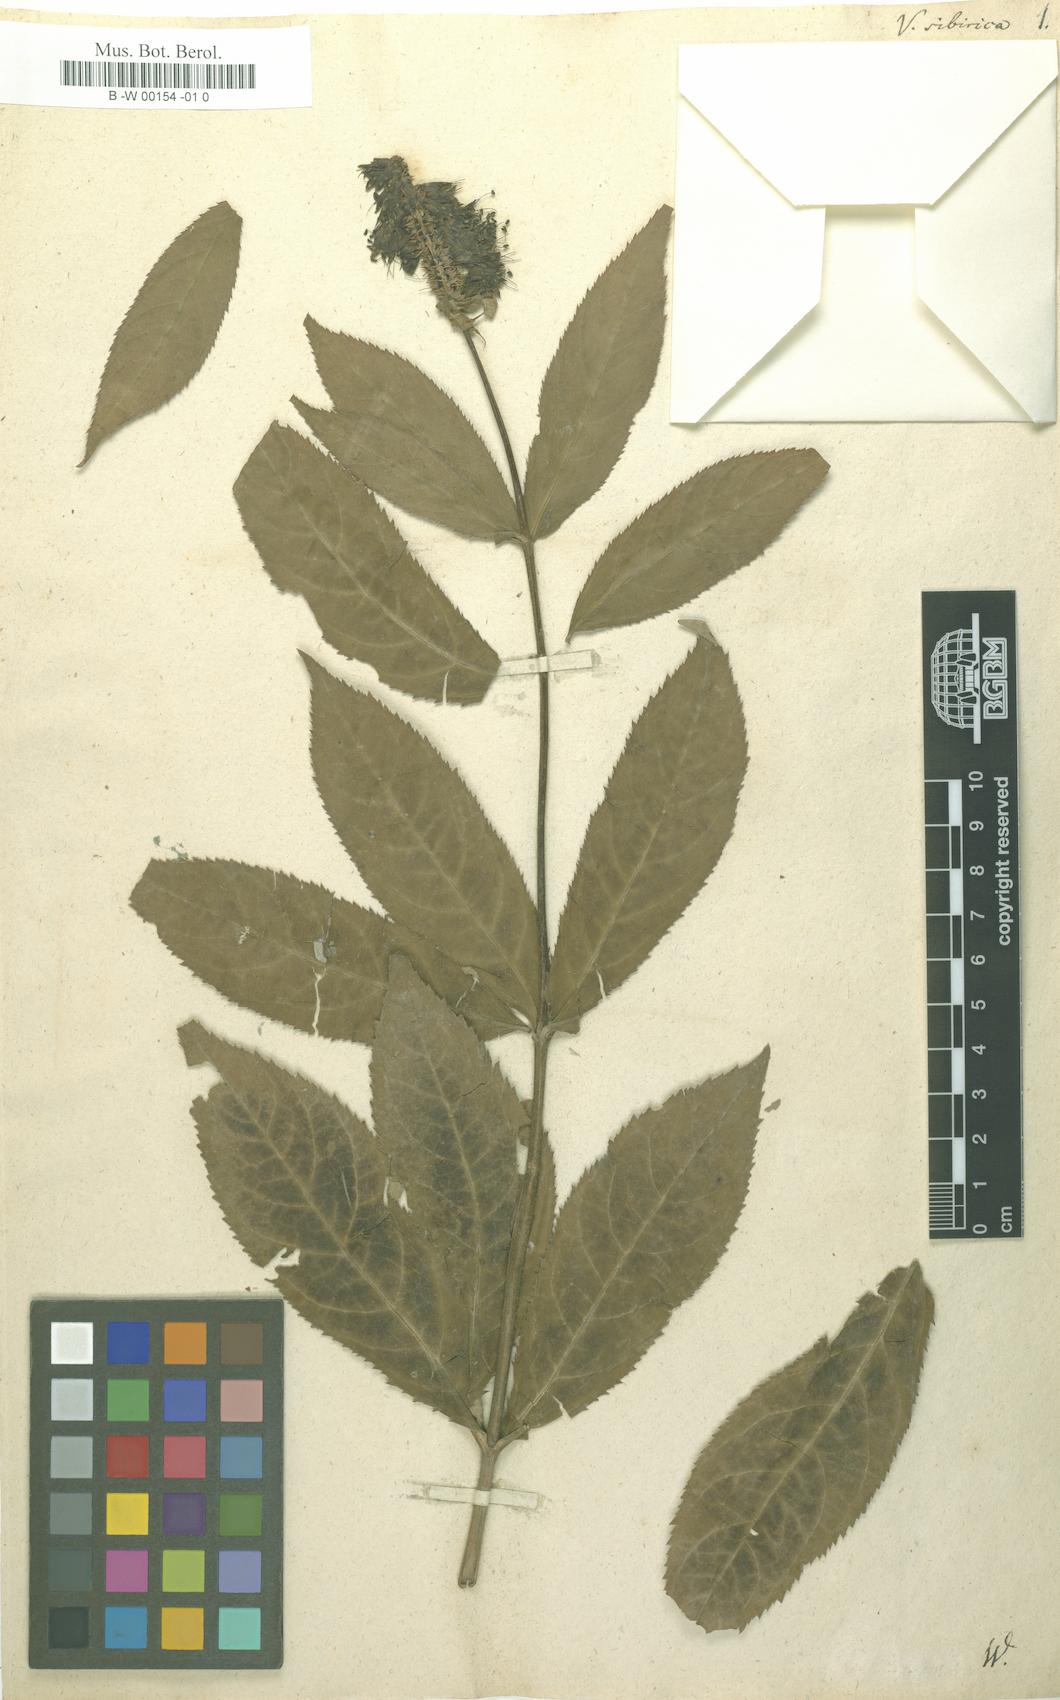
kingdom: Plantae
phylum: Tracheophyta
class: Magnoliopsida
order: Lamiales
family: Plantaginaceae
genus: Veronicastrum
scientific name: Veronicastrum sibiricum
